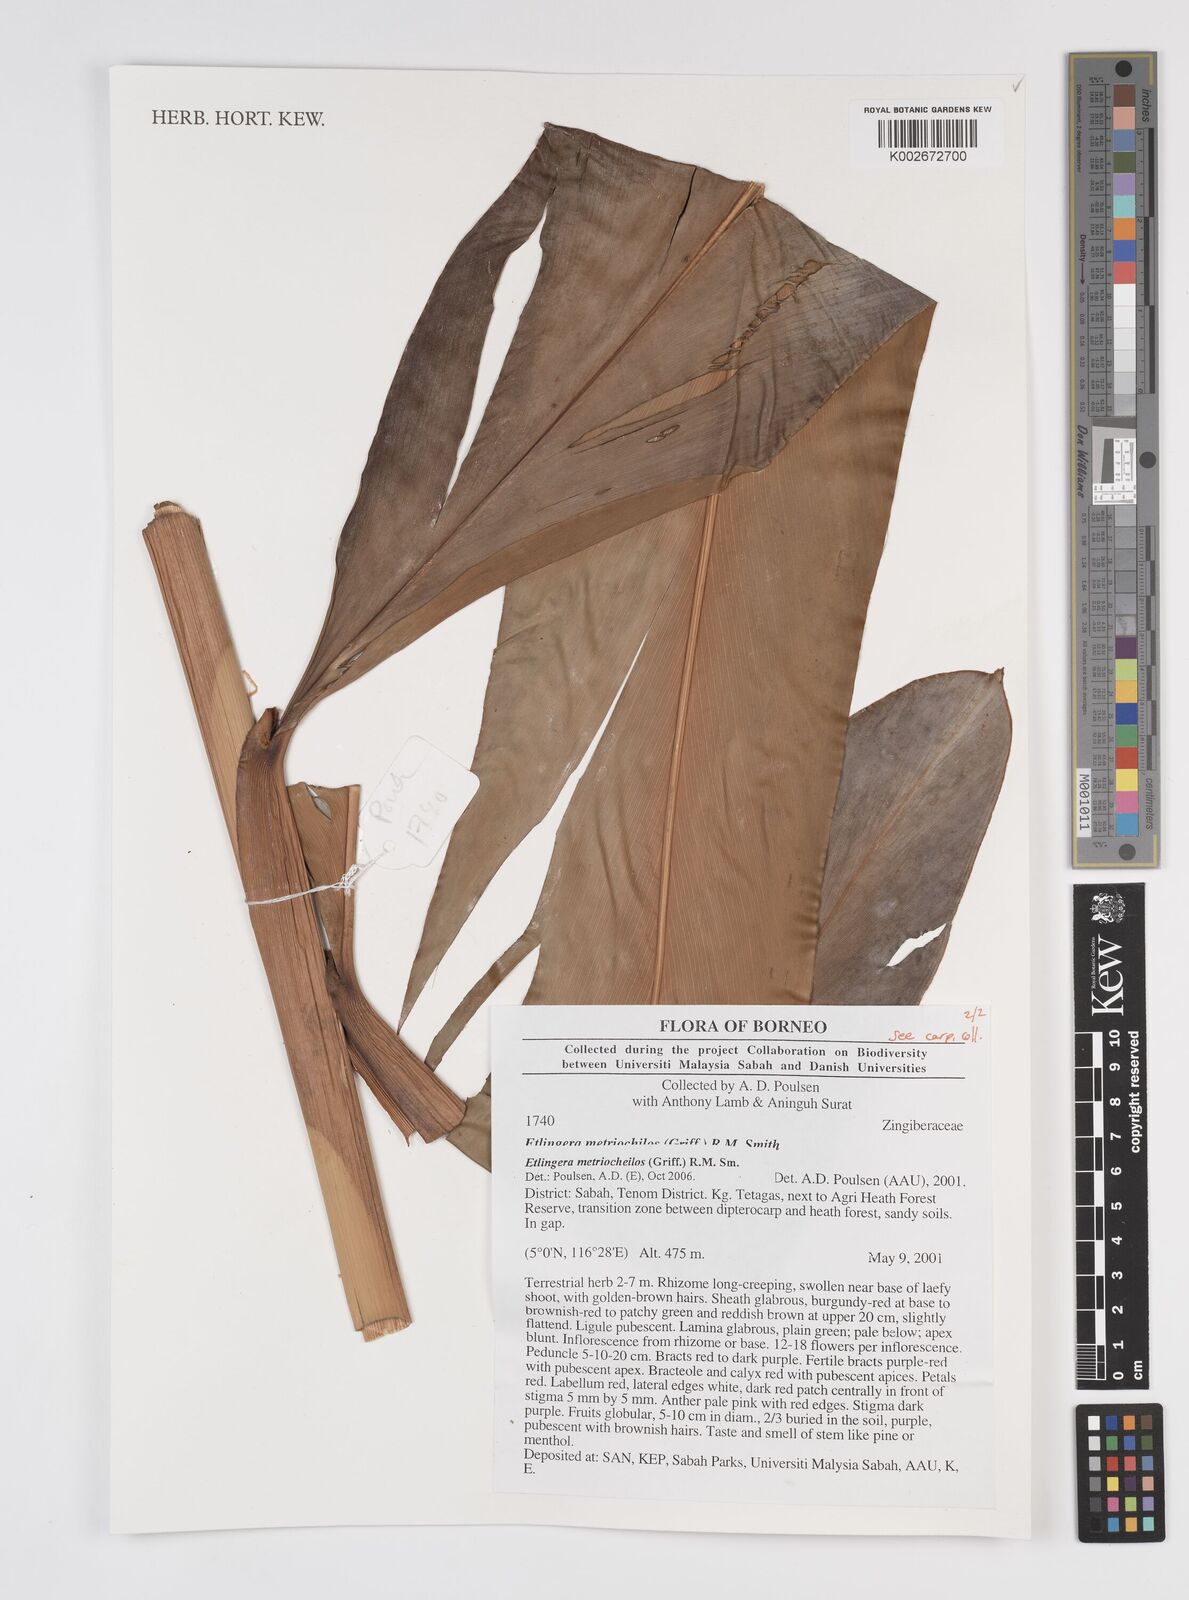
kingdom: Plantae
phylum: Tracheophyta
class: Liliopsida
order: Zingiberales
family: Zingiberaceae
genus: Etlingera
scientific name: Etlingera metriocheilos
